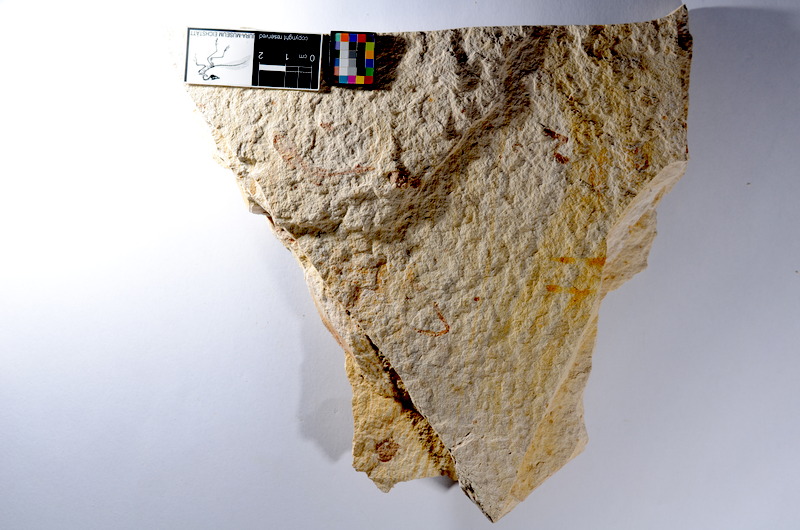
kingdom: Animalia
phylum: Chordata
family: Ascalaboidae
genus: Tharsis
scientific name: Tharsis dubius
